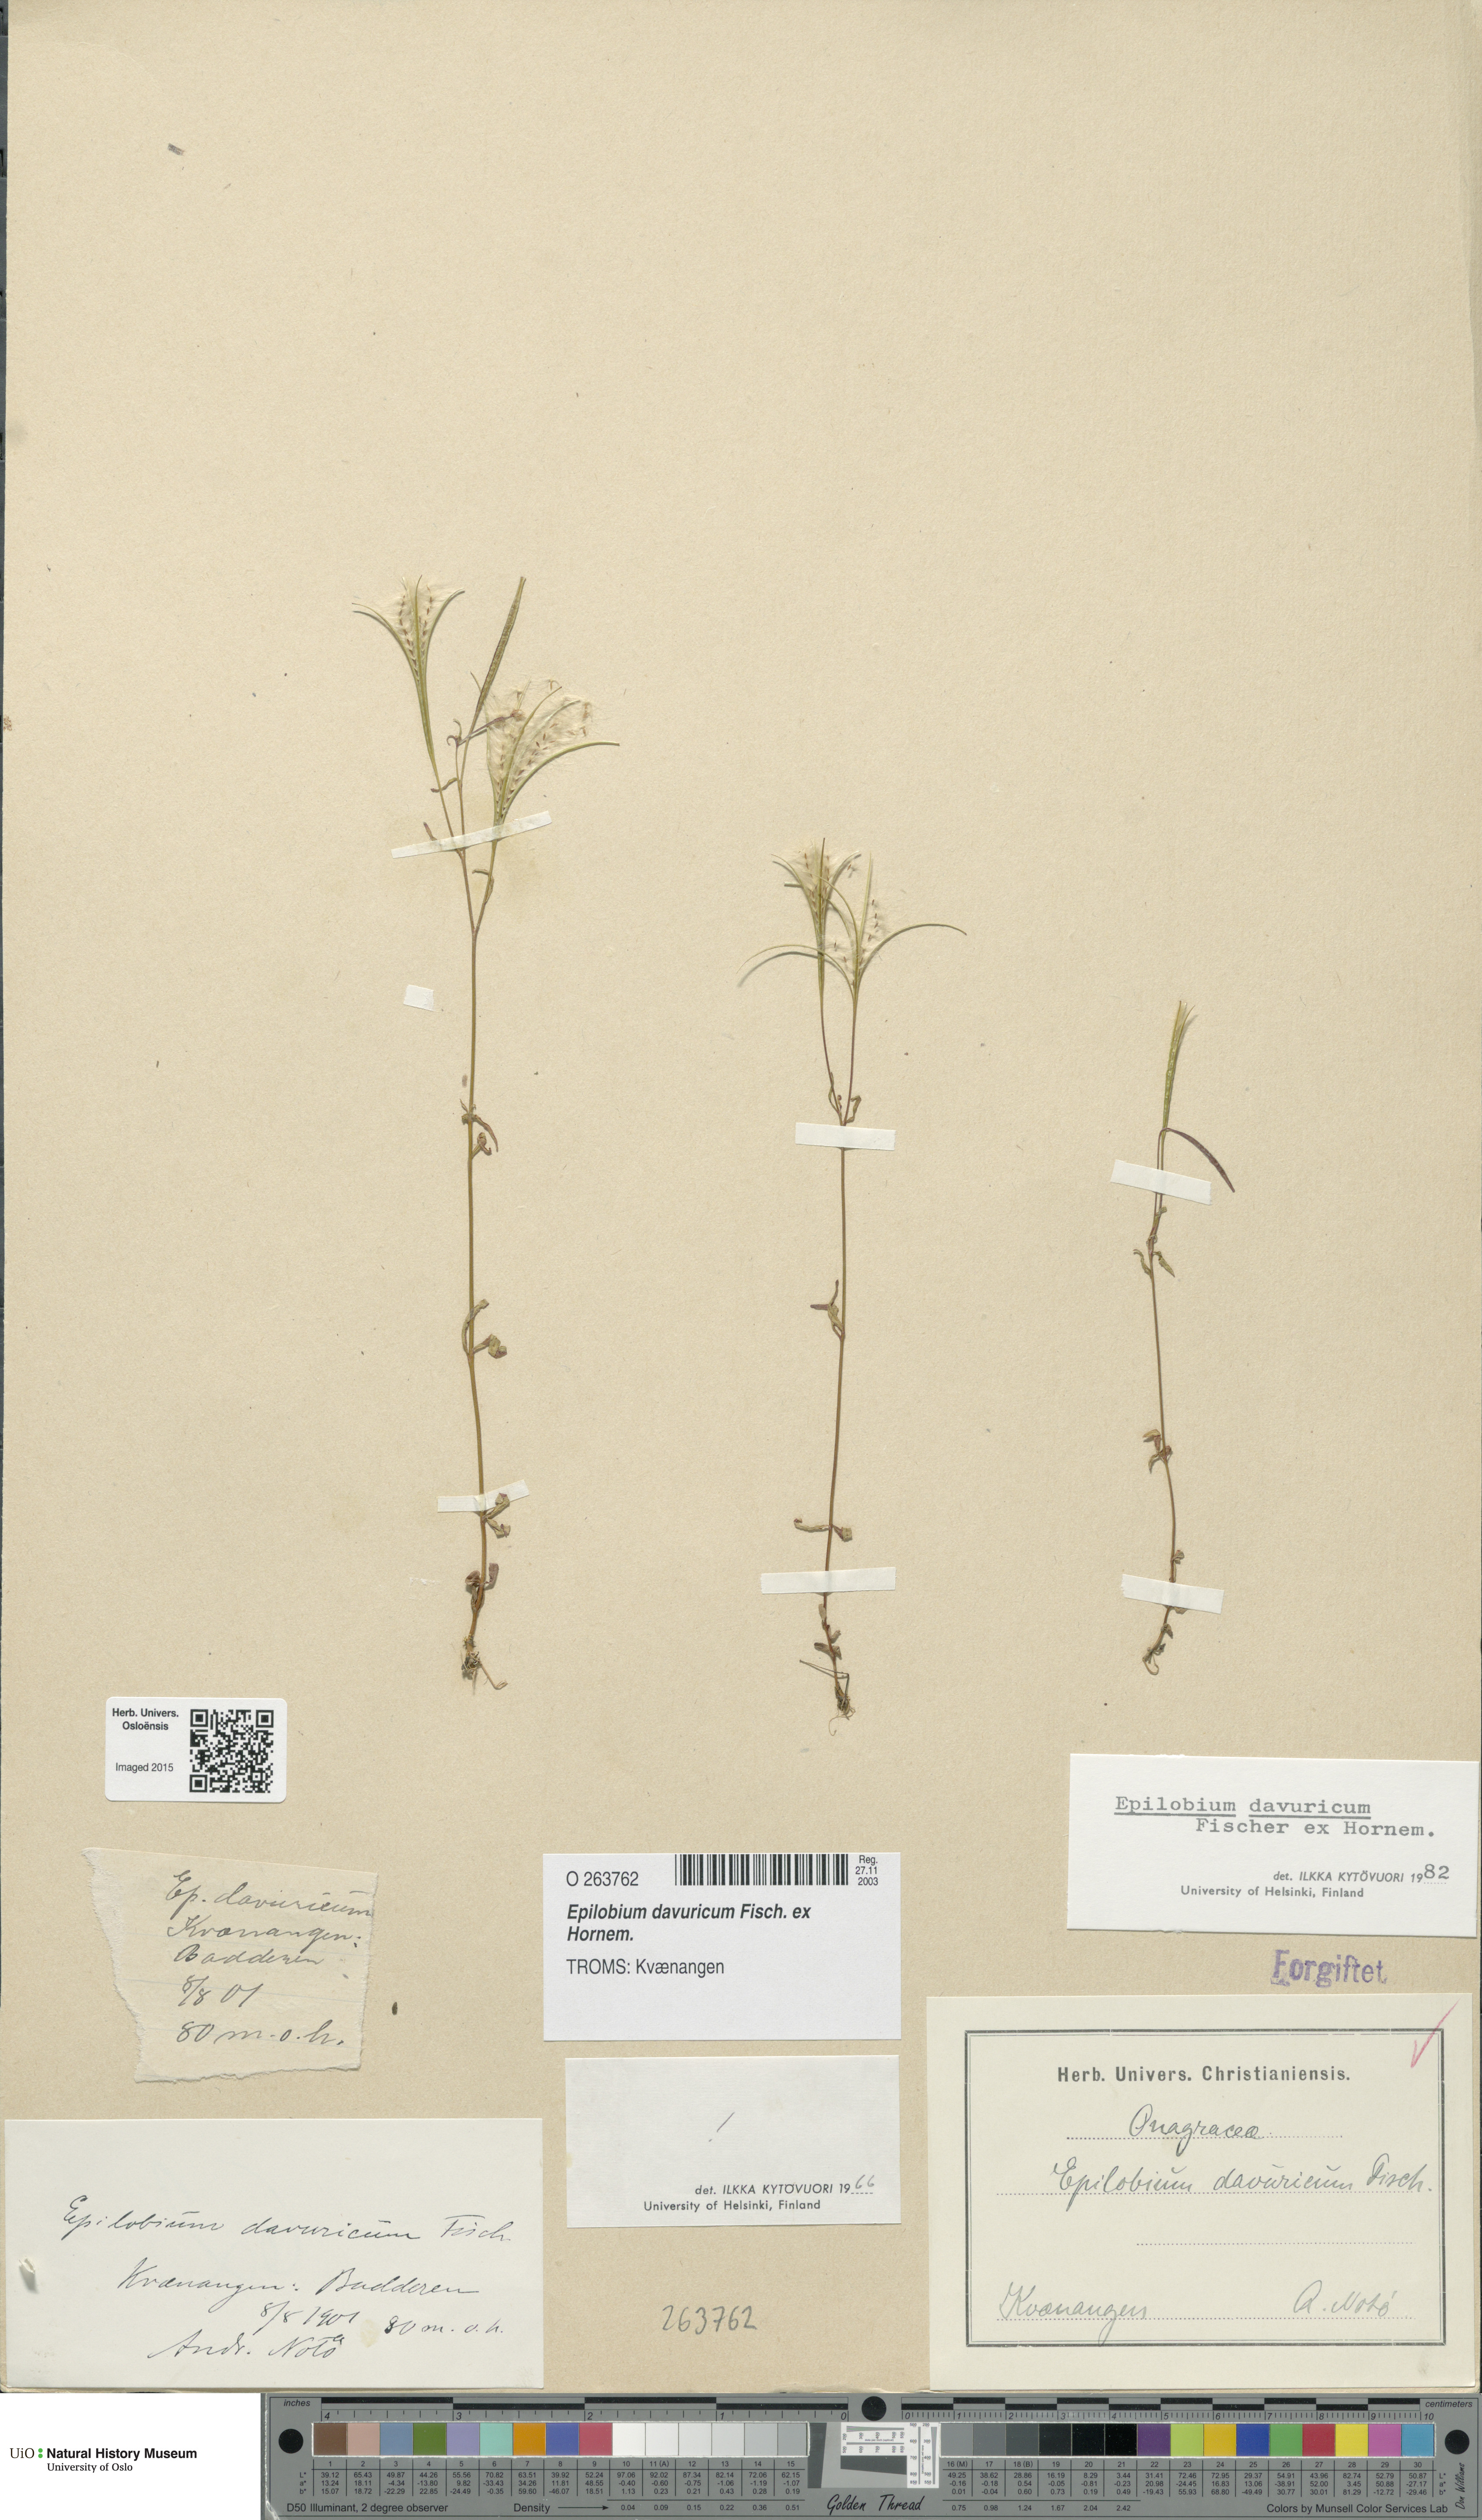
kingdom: Plantae
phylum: Tracheophyta
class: Magnoliopsida
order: Myrtales
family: Onagraceae
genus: Epilobium
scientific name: Epilobium davuricum
